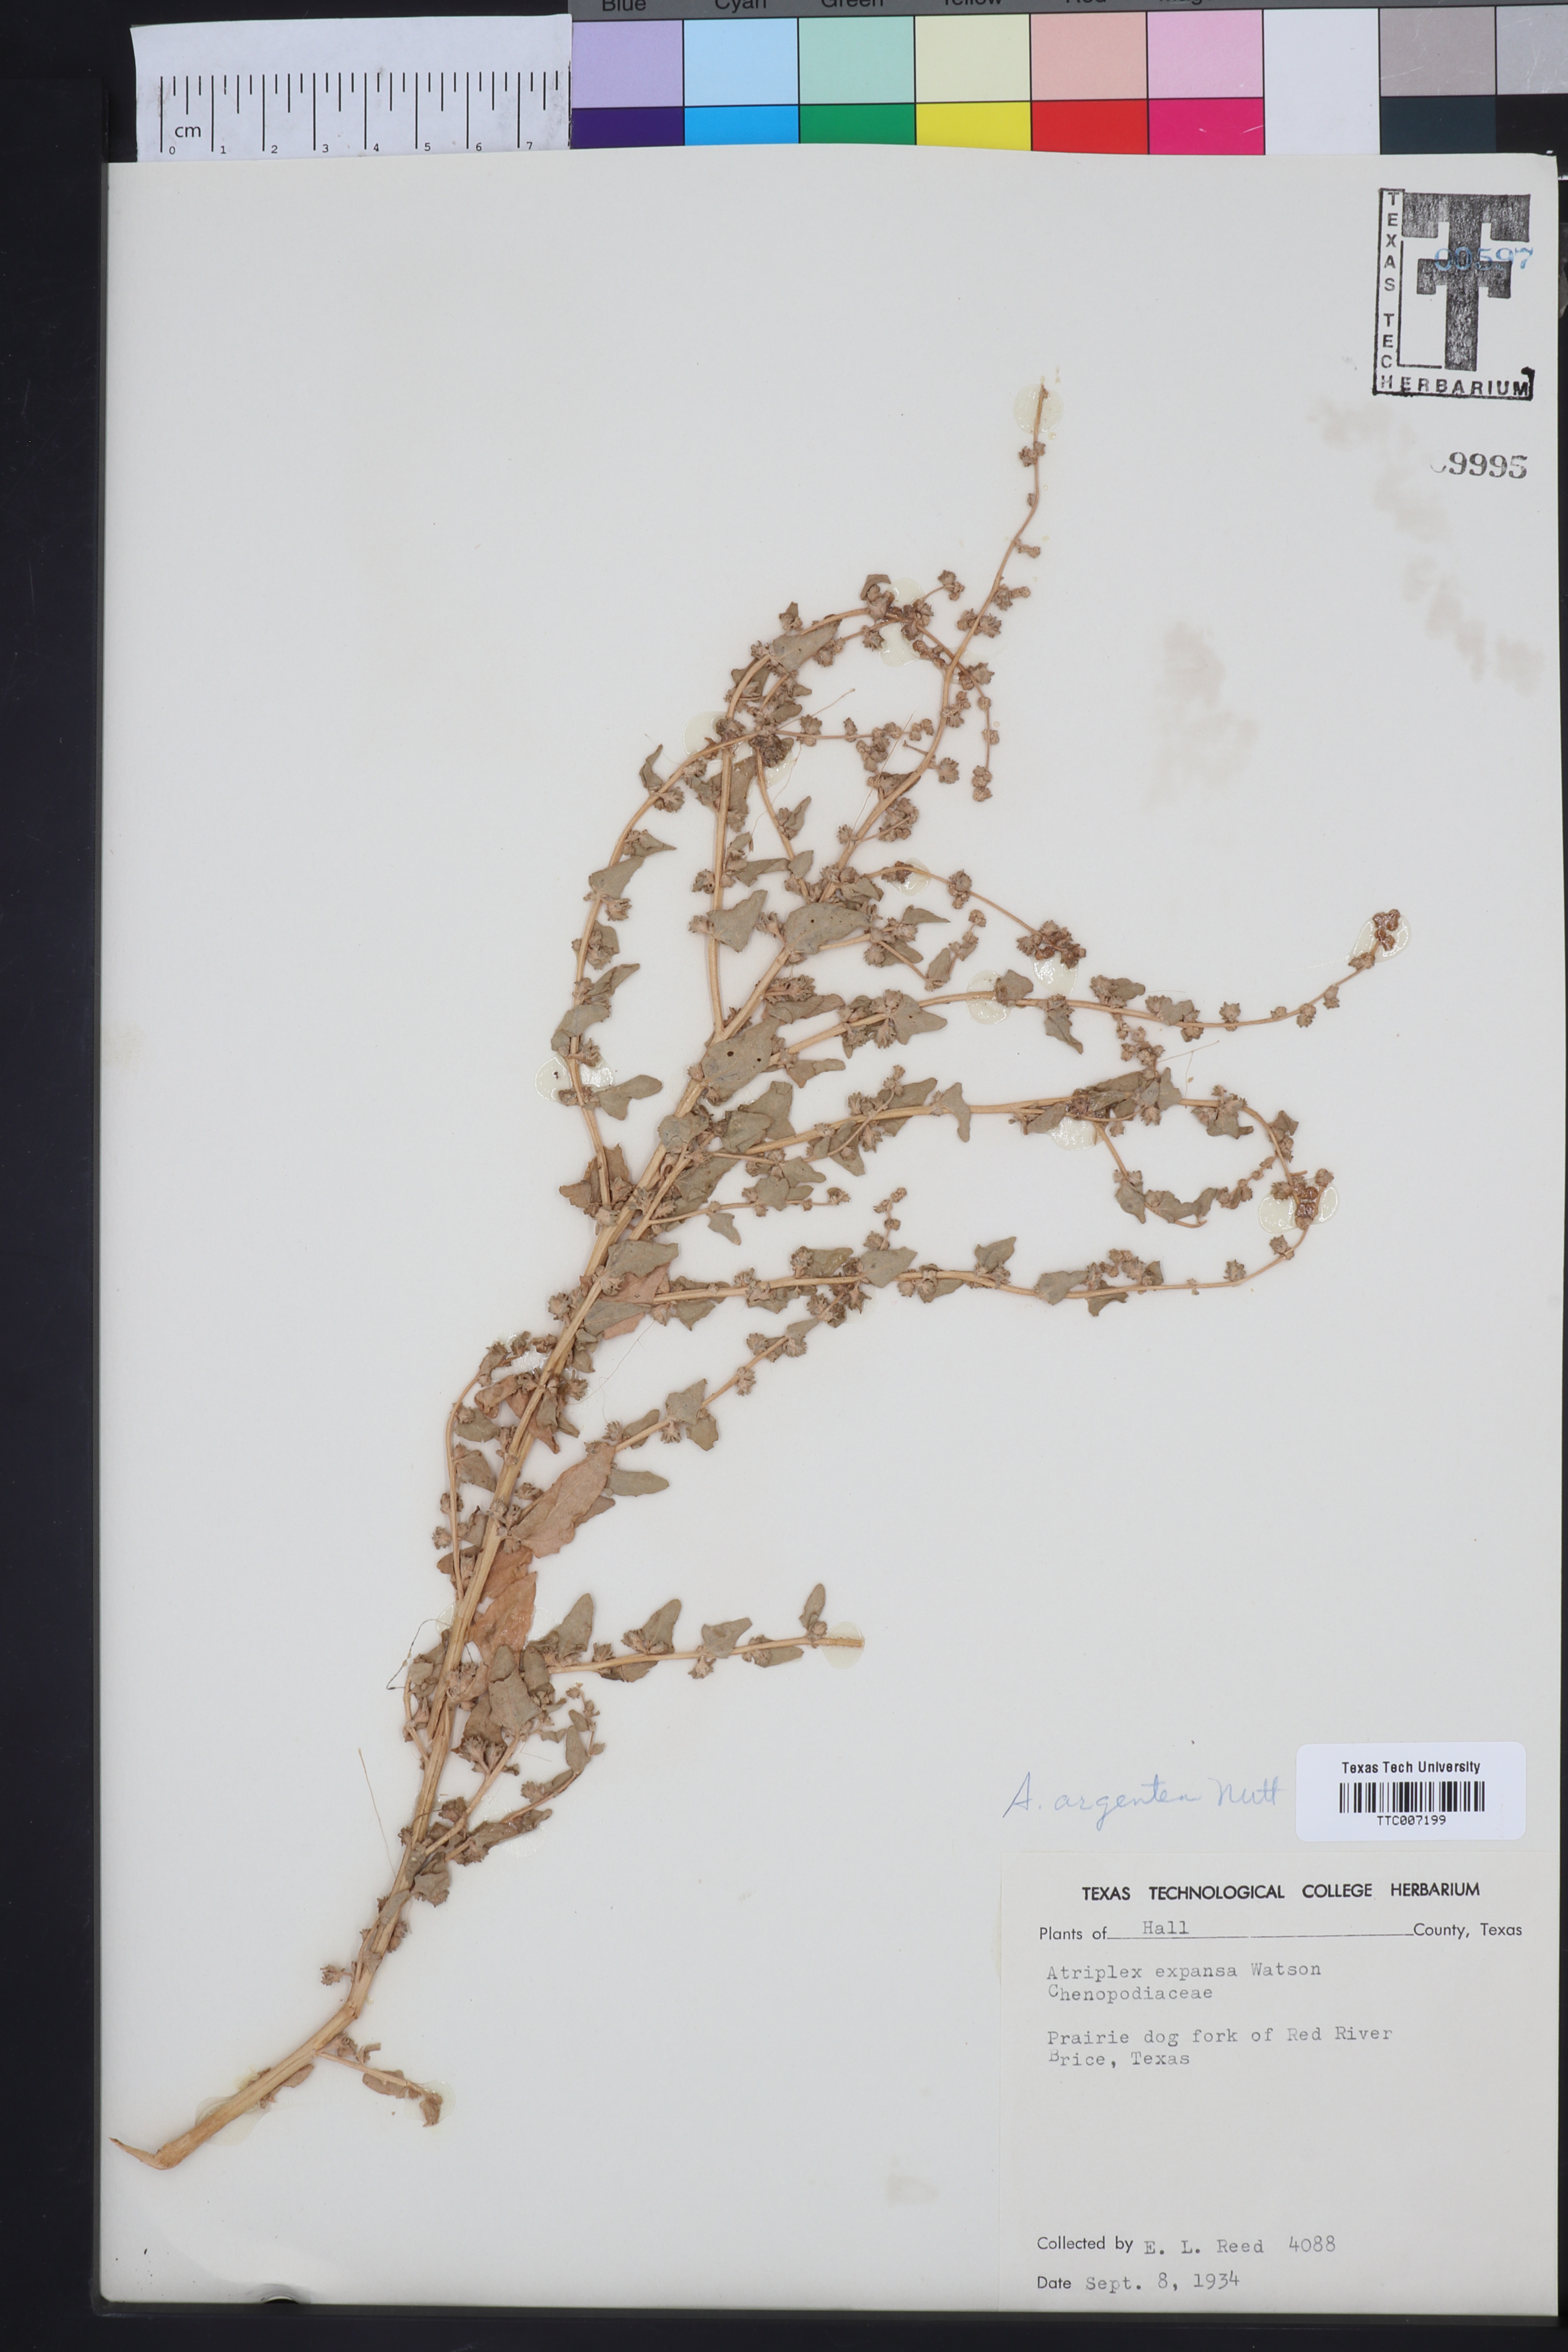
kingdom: Plantae
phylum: Tracheophyta
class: Magnoliopsida
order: Caryophyllales
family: Amaranthaceae
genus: Atriplex
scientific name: Atriplex argentea
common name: Silverscale
